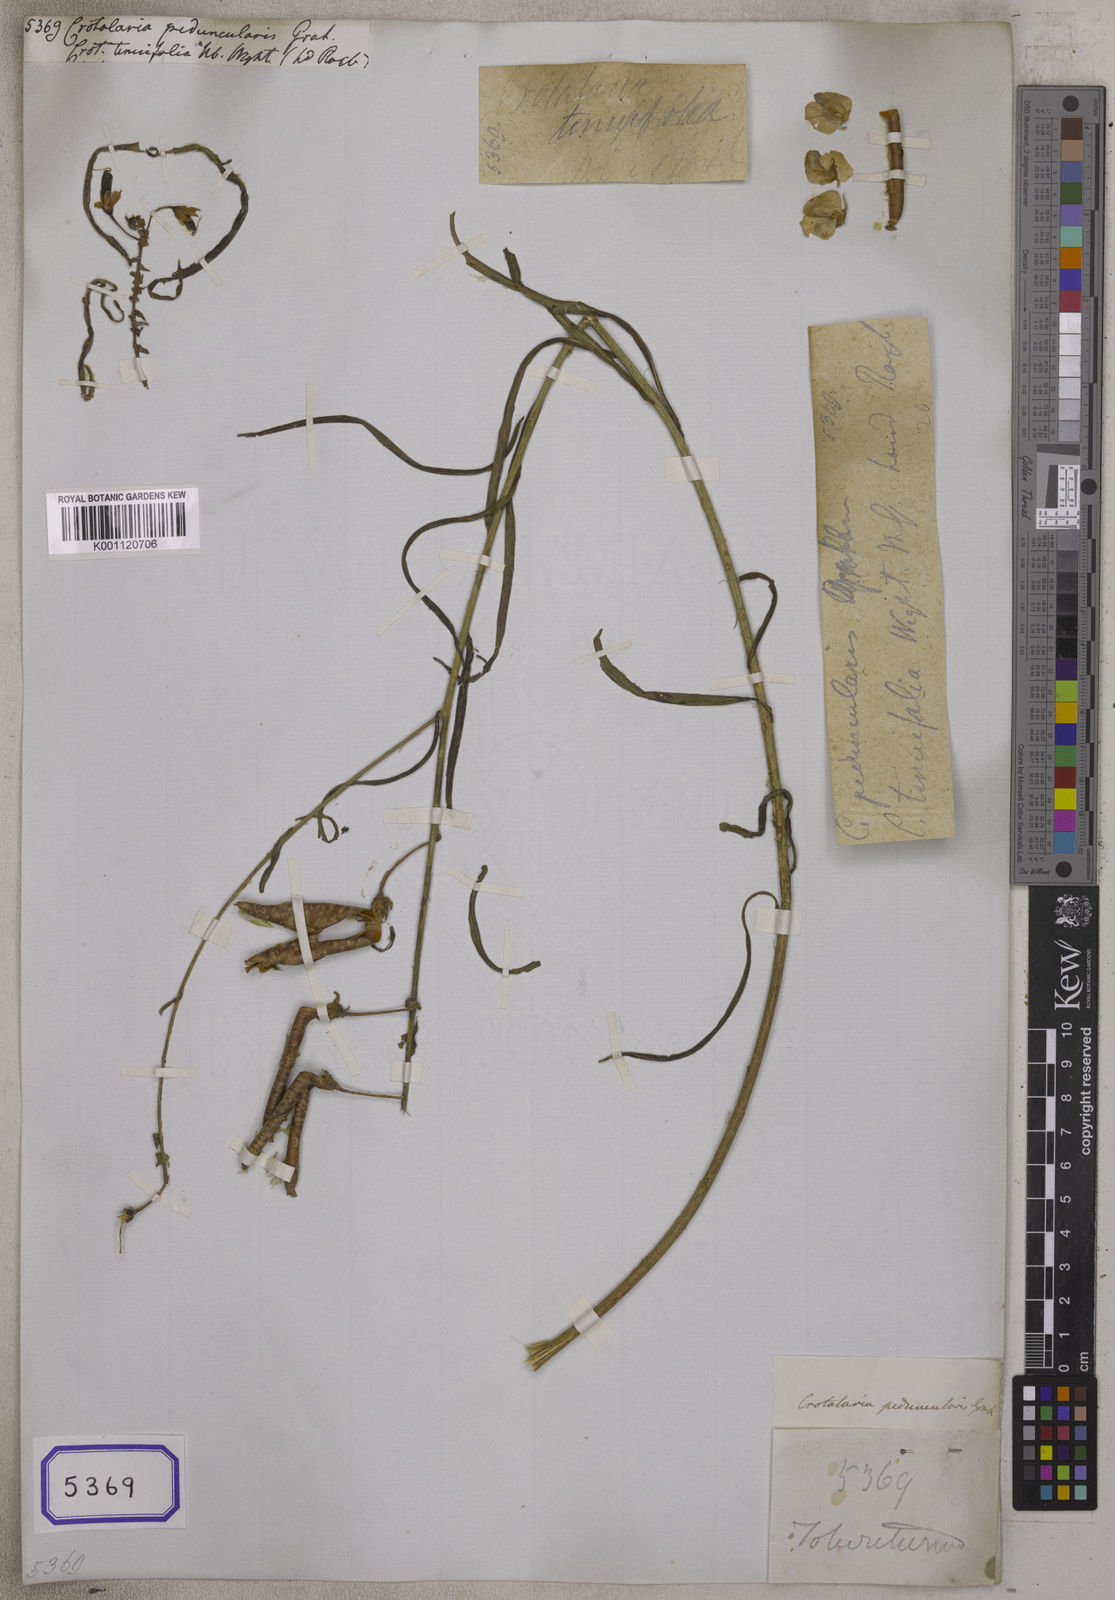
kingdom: Plantae
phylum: Tracheophyta
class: Magnoliopsida
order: Fabales
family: Fabaceae
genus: Crotalaria
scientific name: Crotalaria
